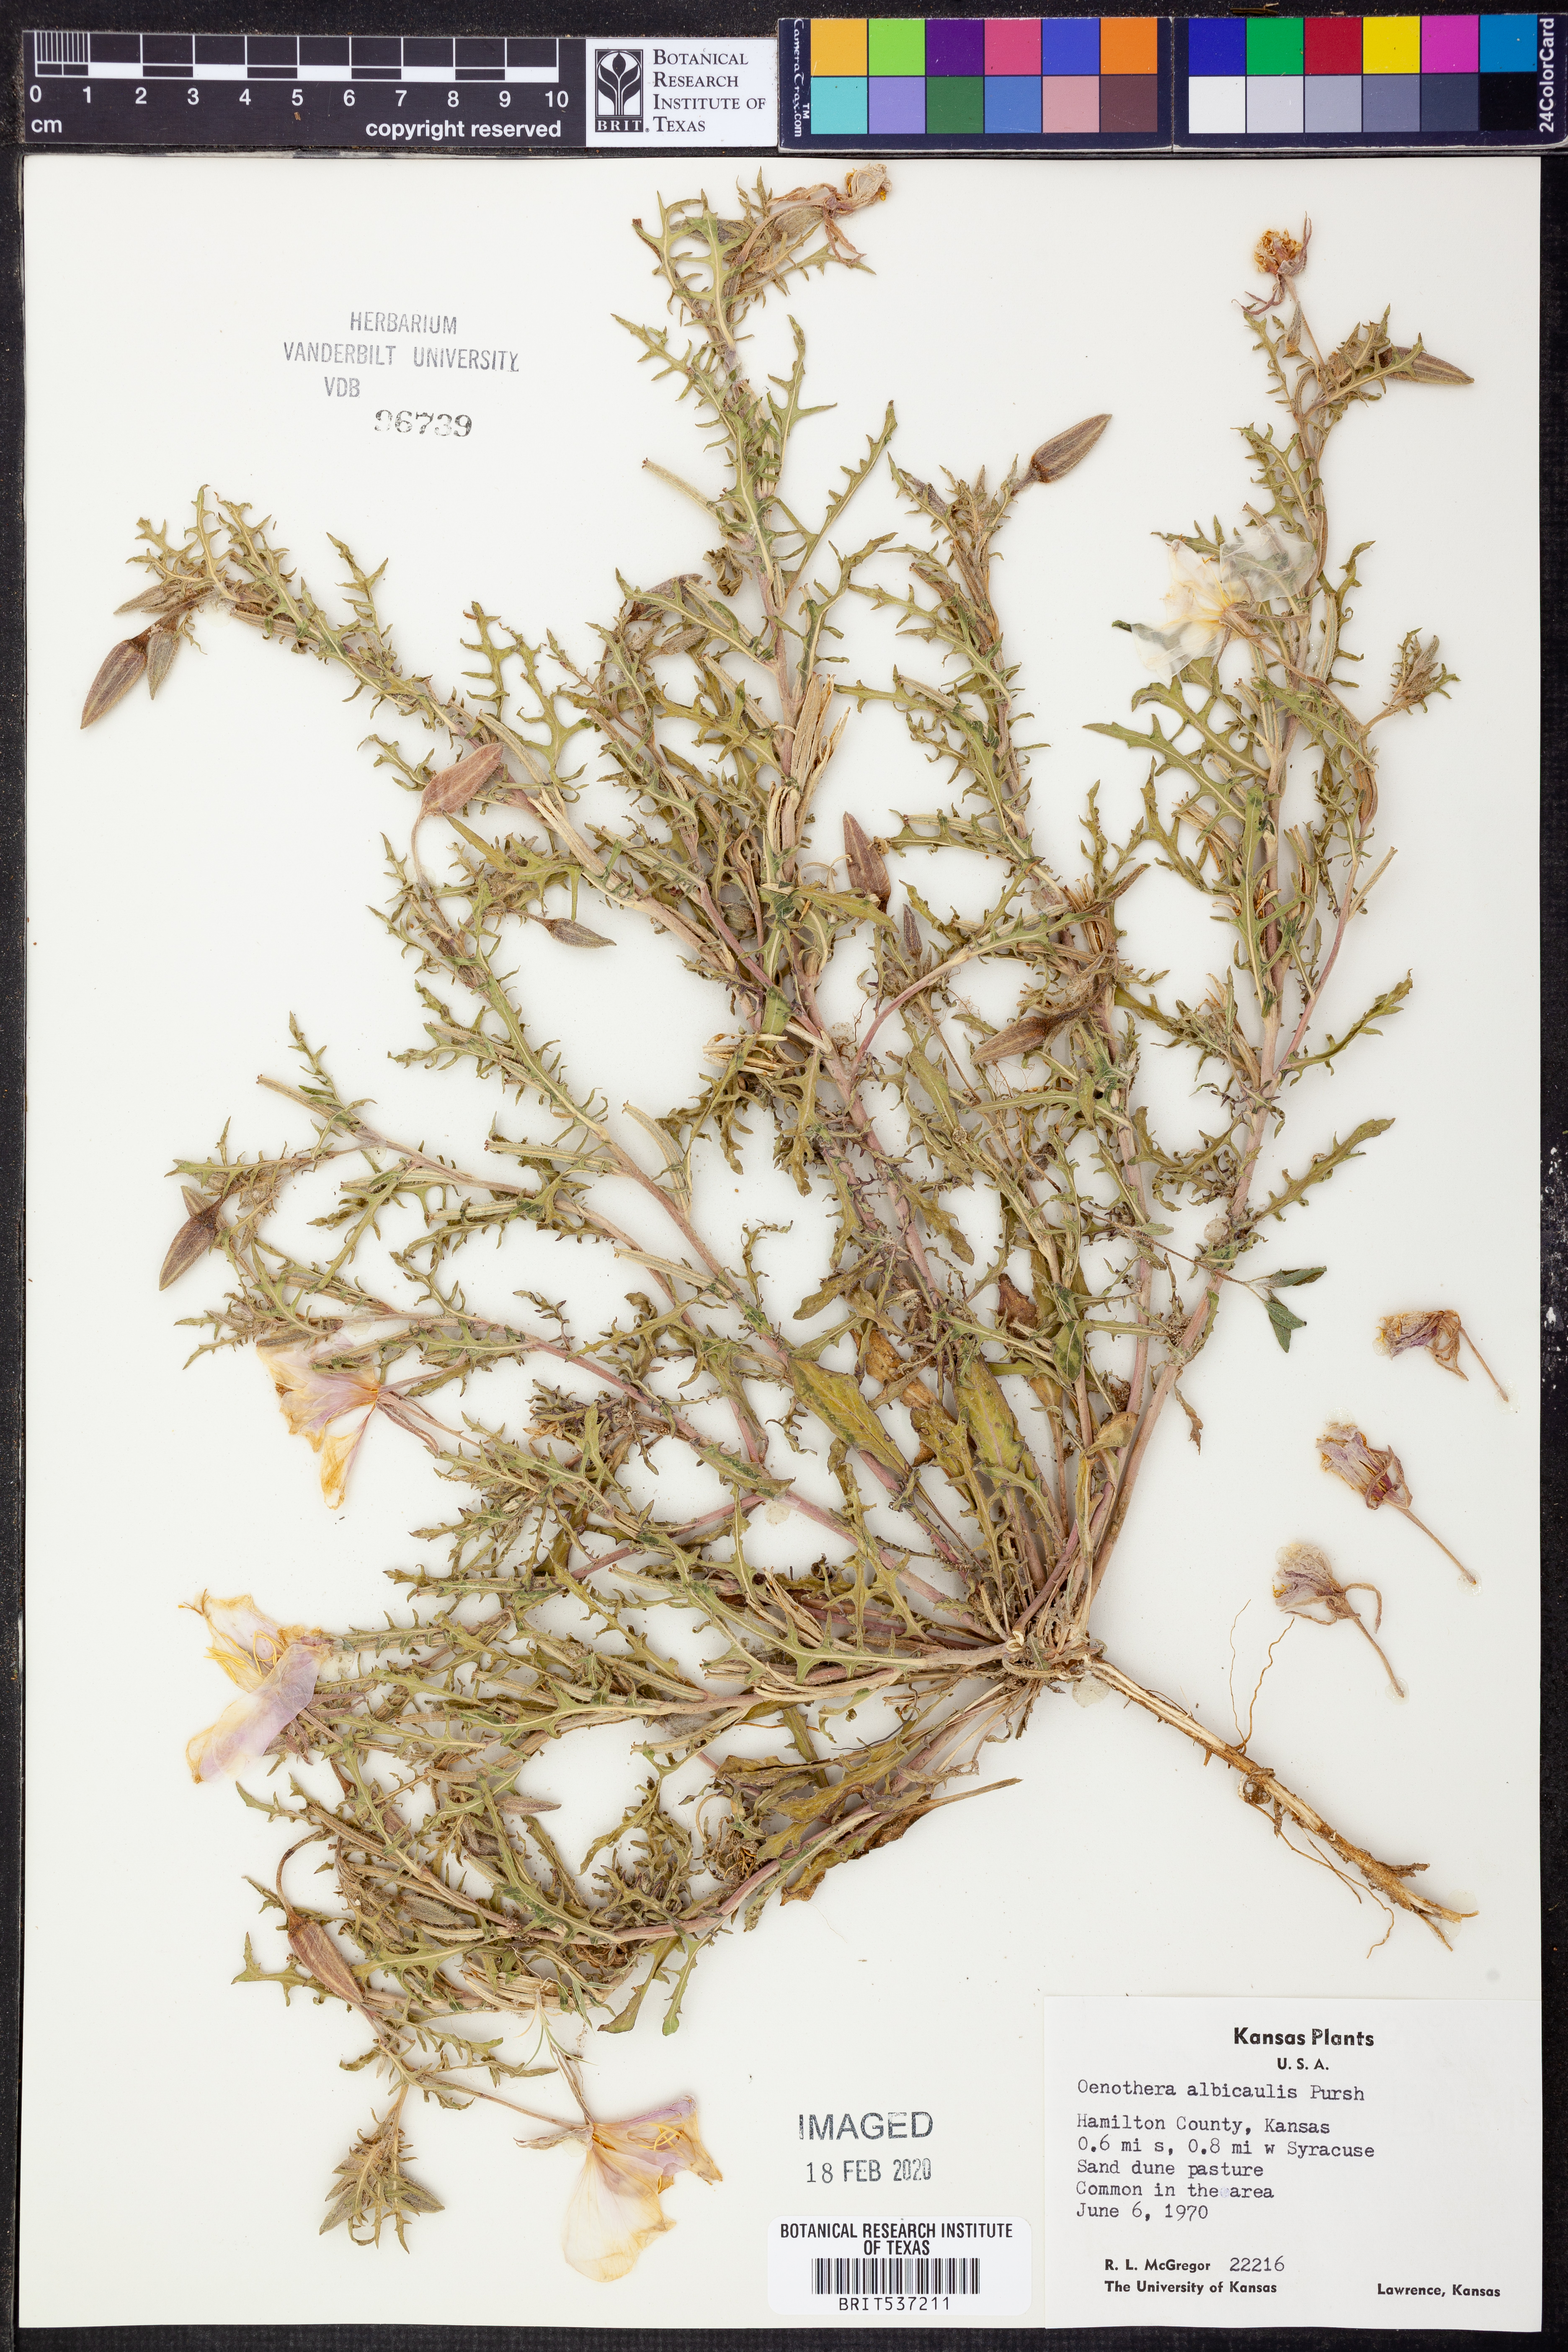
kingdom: Plantae
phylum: Tracheophyta
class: Magnoliopsida
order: Myrtales
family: Onagraceae
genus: Oenothera
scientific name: Oenothera albicaulis
